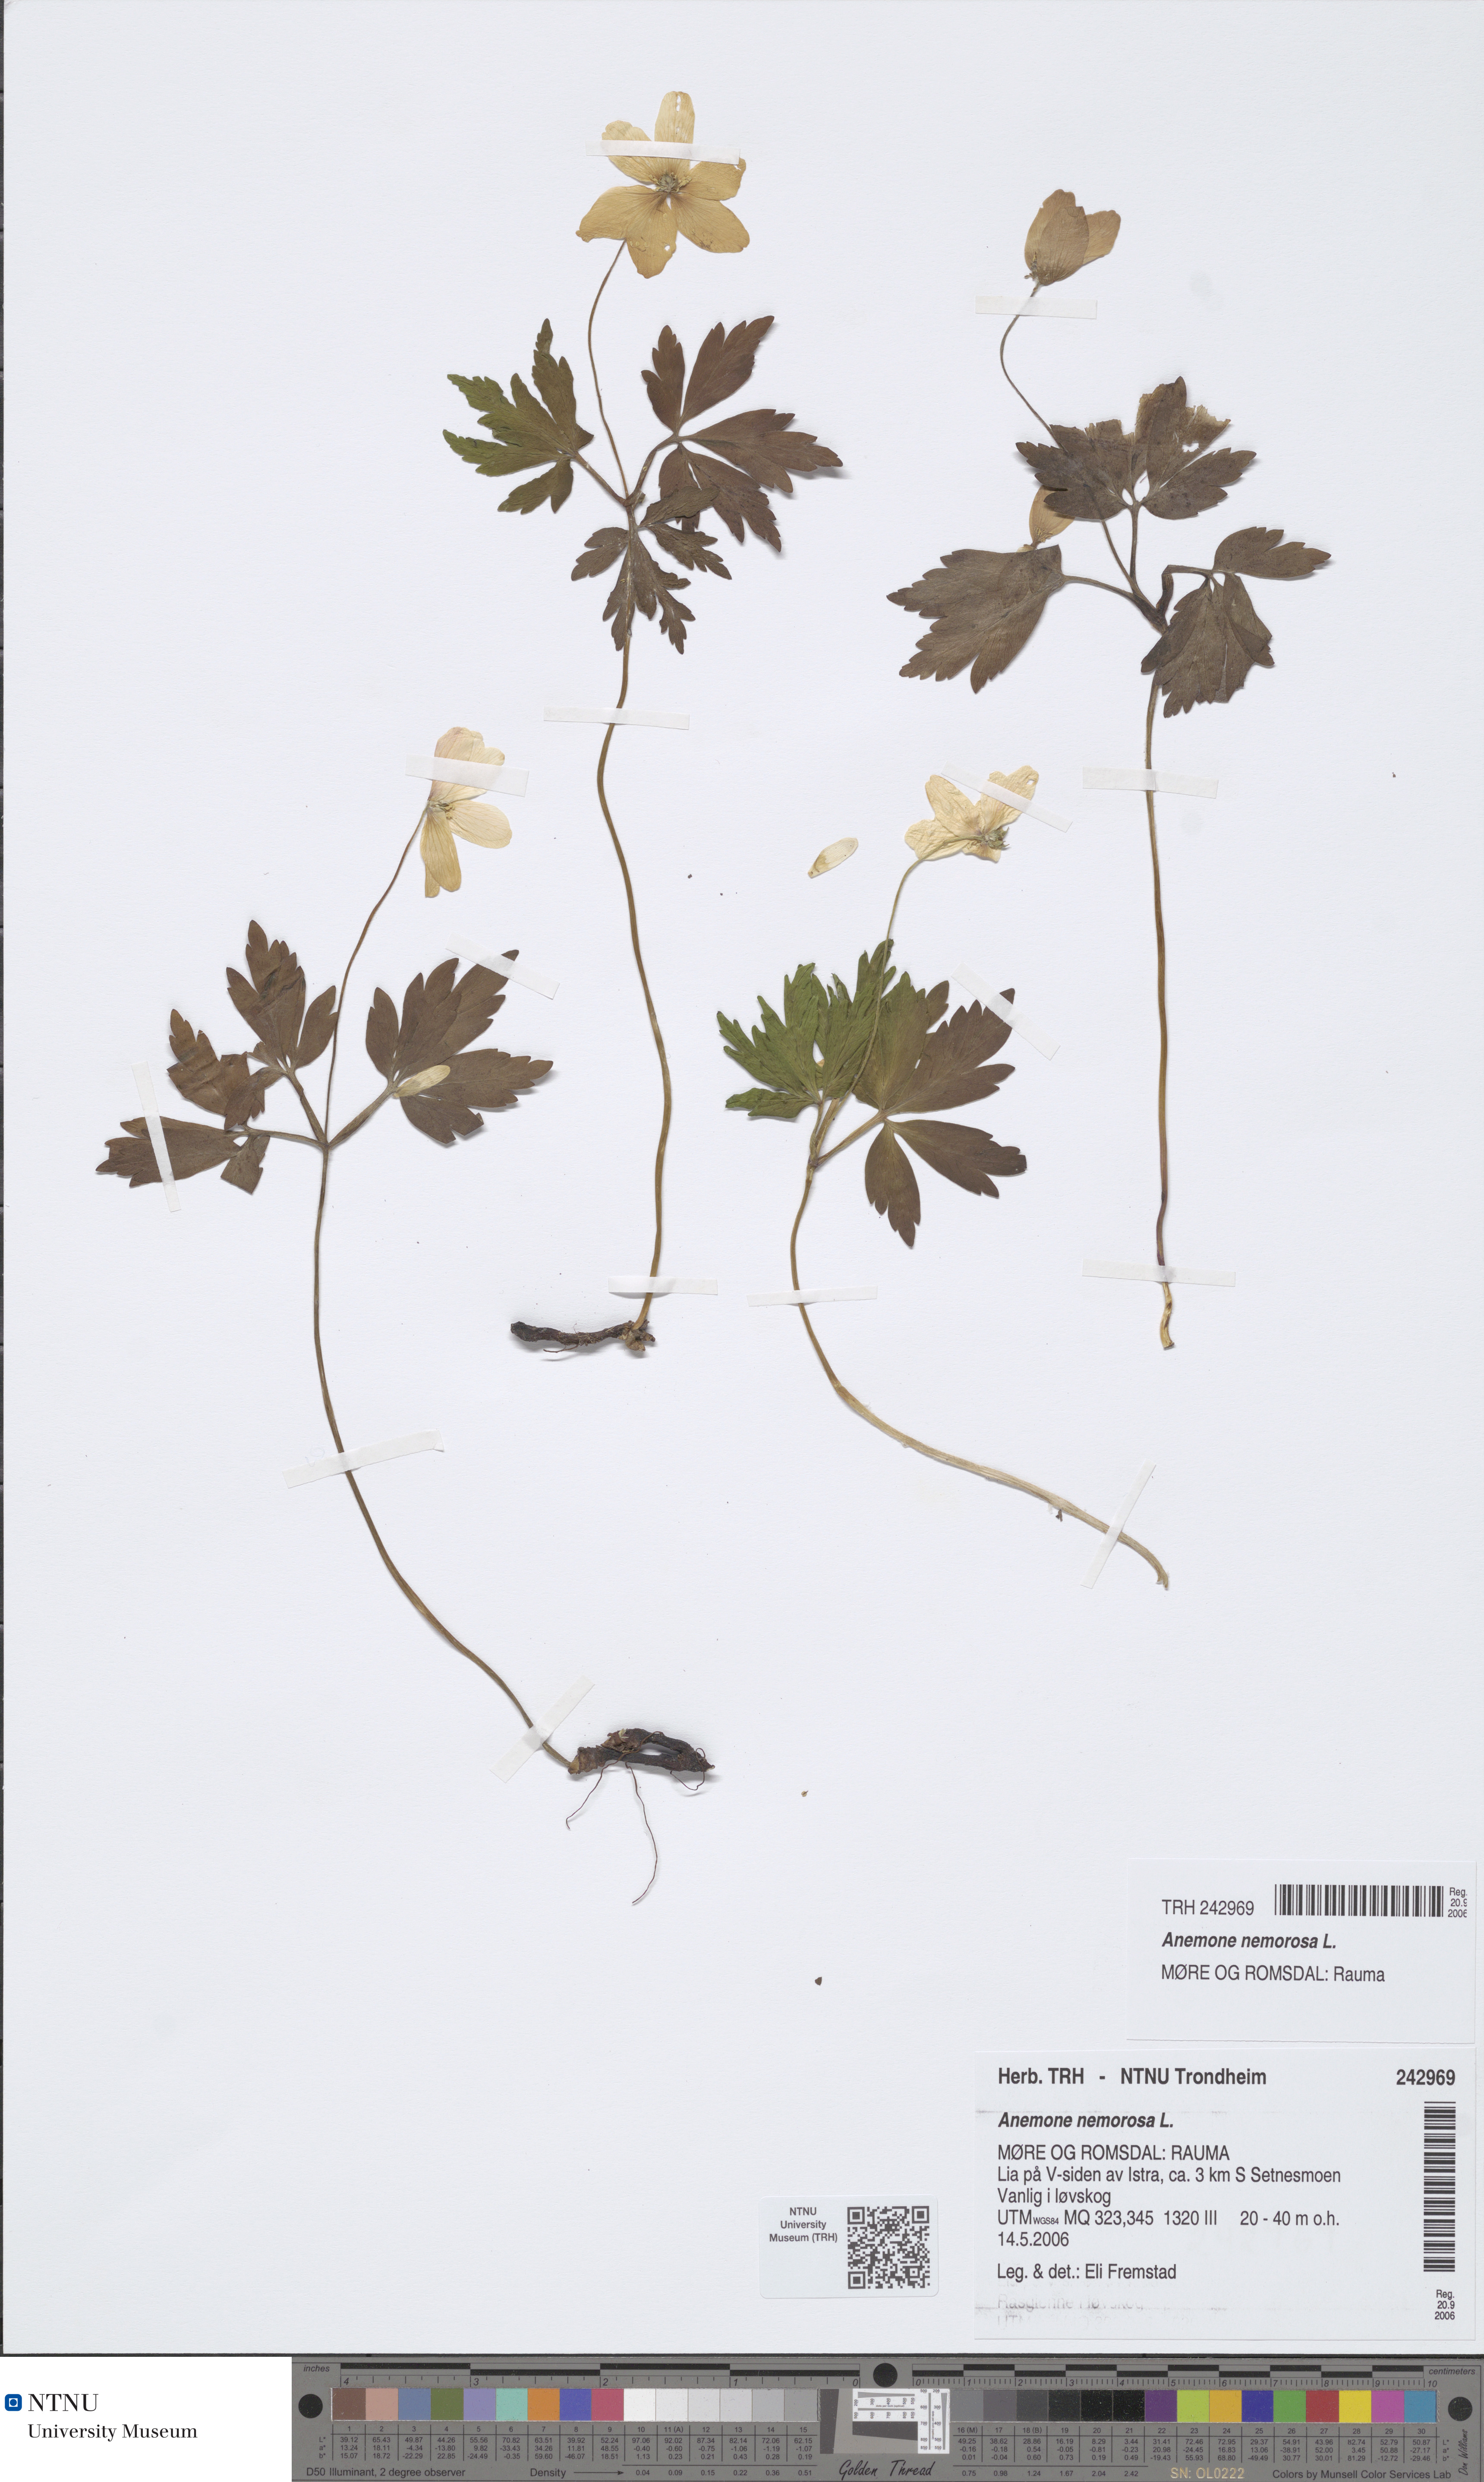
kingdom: Plantae
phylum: Tracheophyta
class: Magnoliopsida
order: Ranunculales
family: Ranunculaceae
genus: Anemone
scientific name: Anemone nemorosa
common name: Wood anemone
